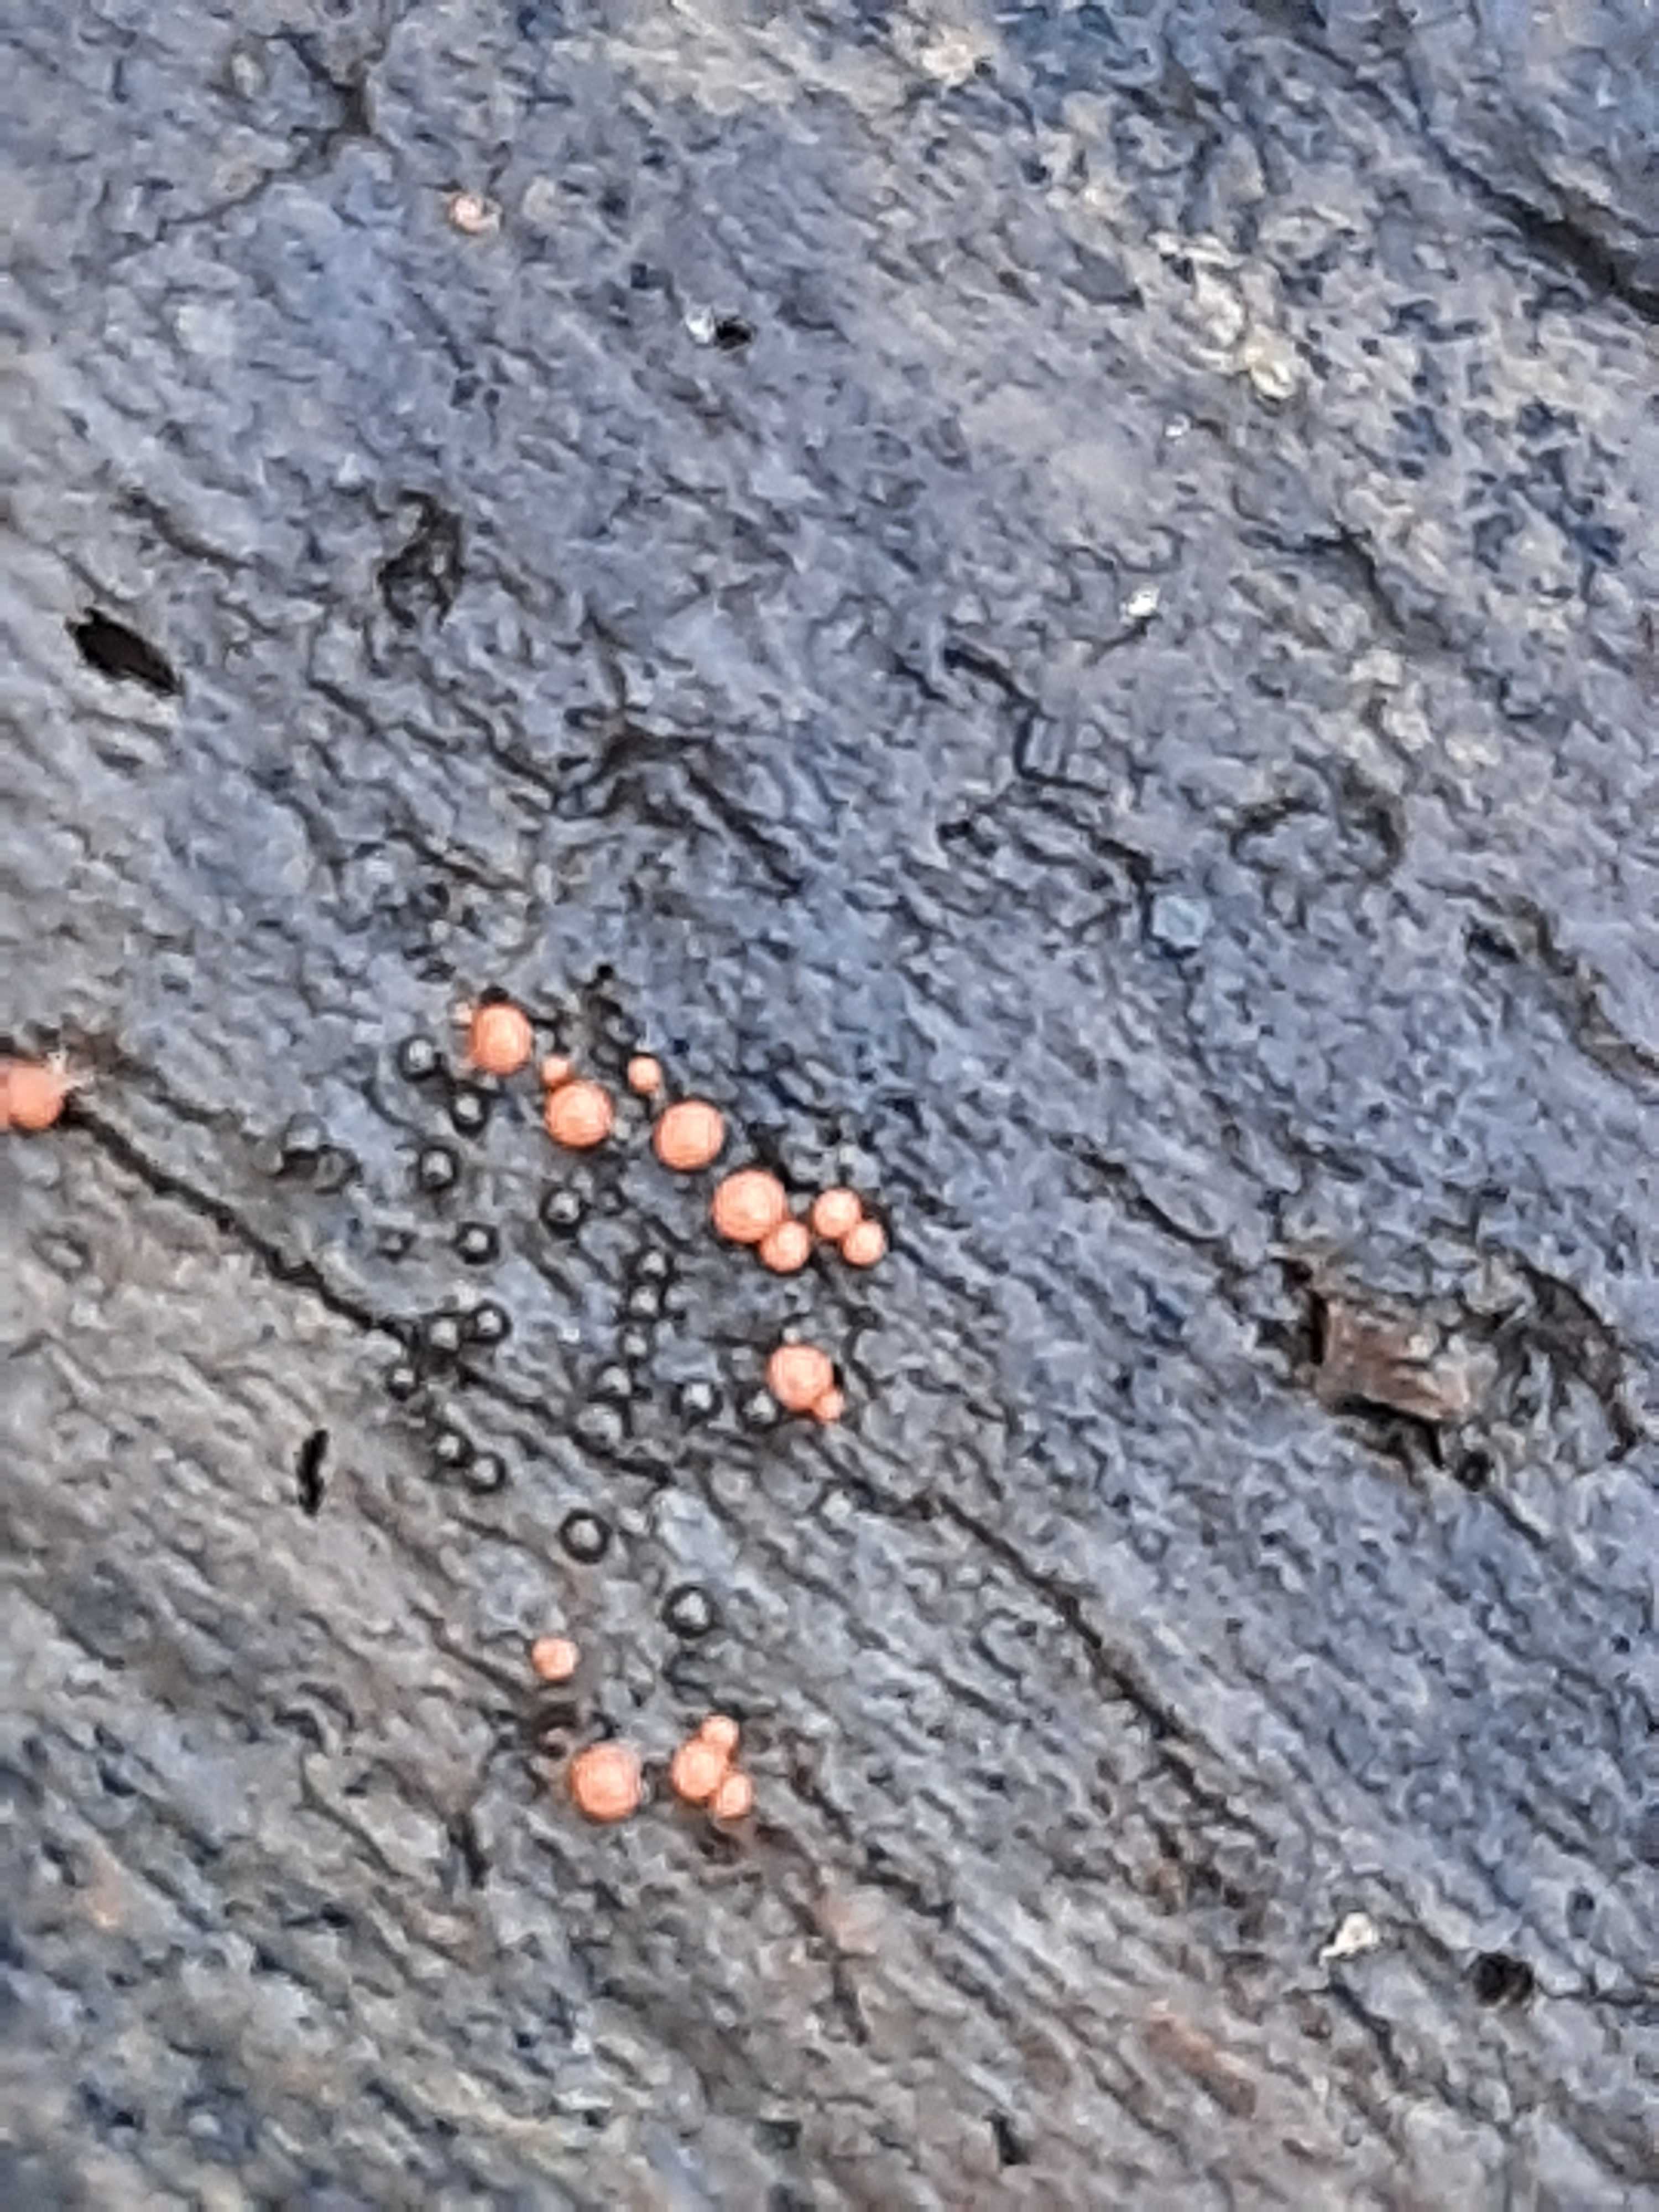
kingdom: Protozoa
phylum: Mycetozoa
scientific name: Mycetozoa
